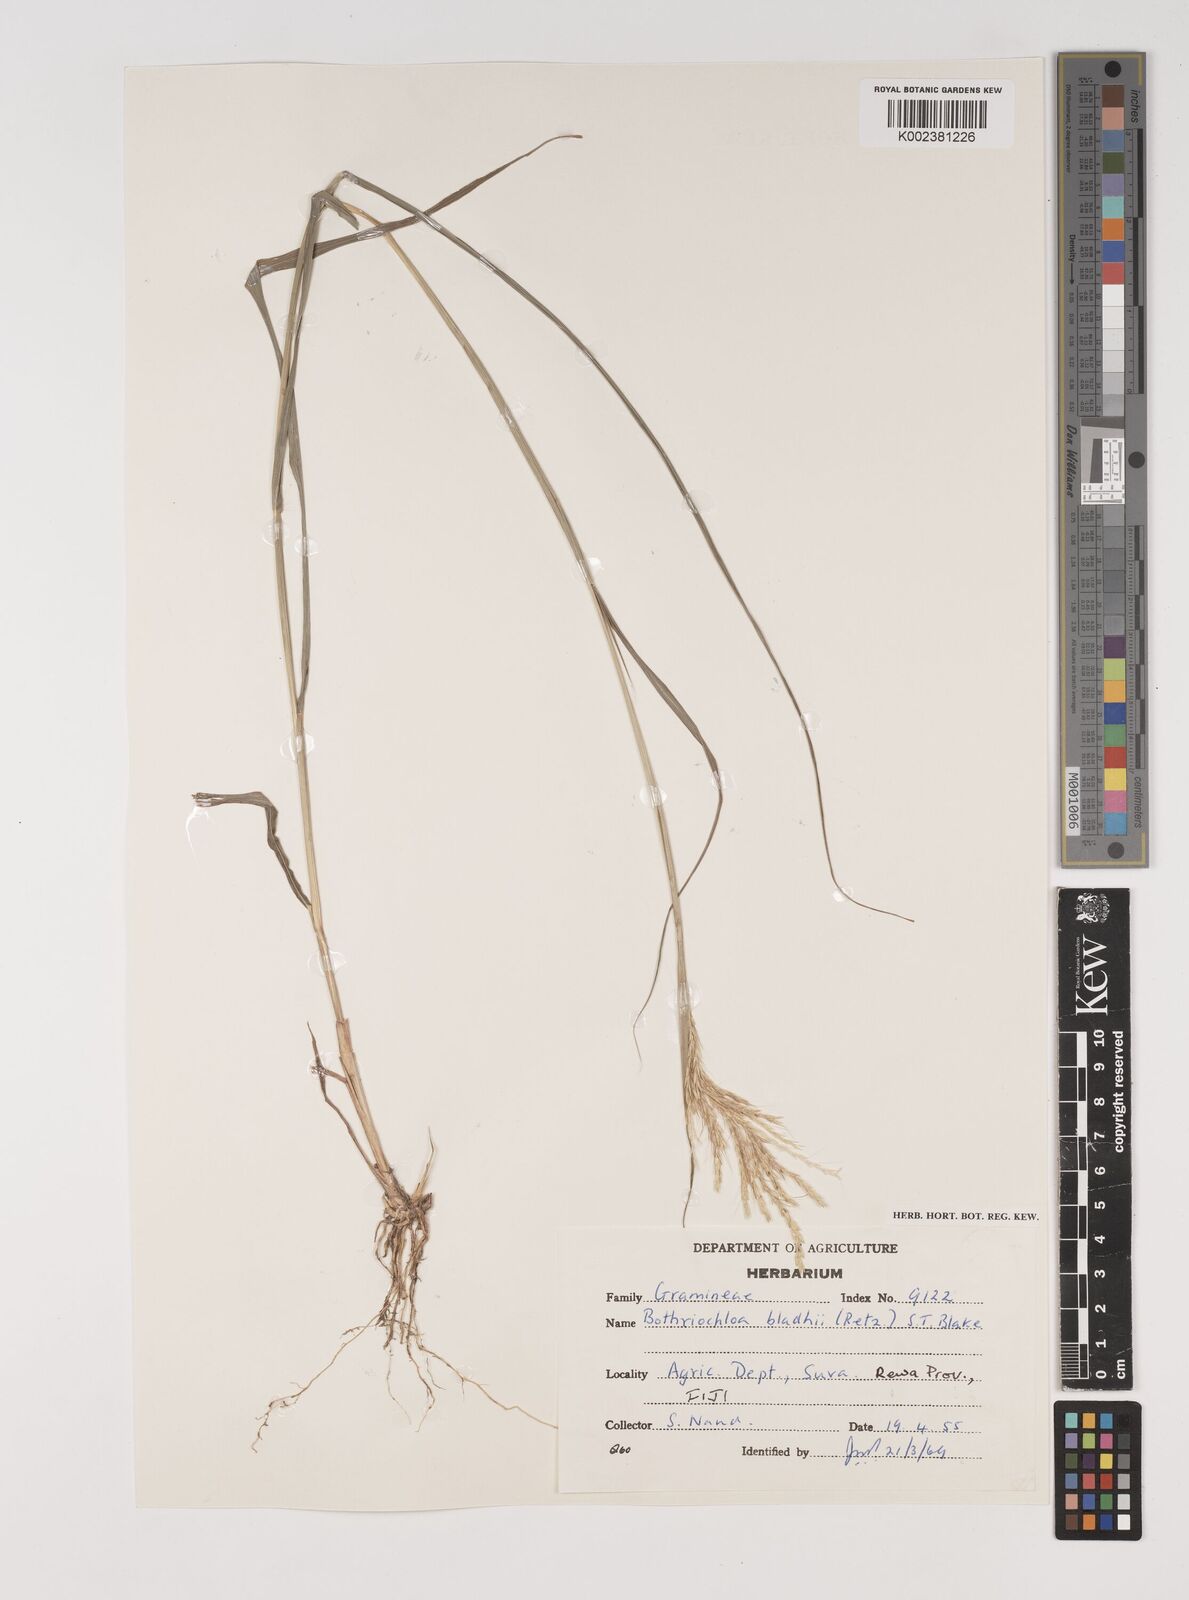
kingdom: Plantae
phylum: Tracheophyta
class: Liliopsida
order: Poales
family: Poaceae
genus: Bothriochloa
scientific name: Bothriochloa bladhii
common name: Caucasian bluestem
